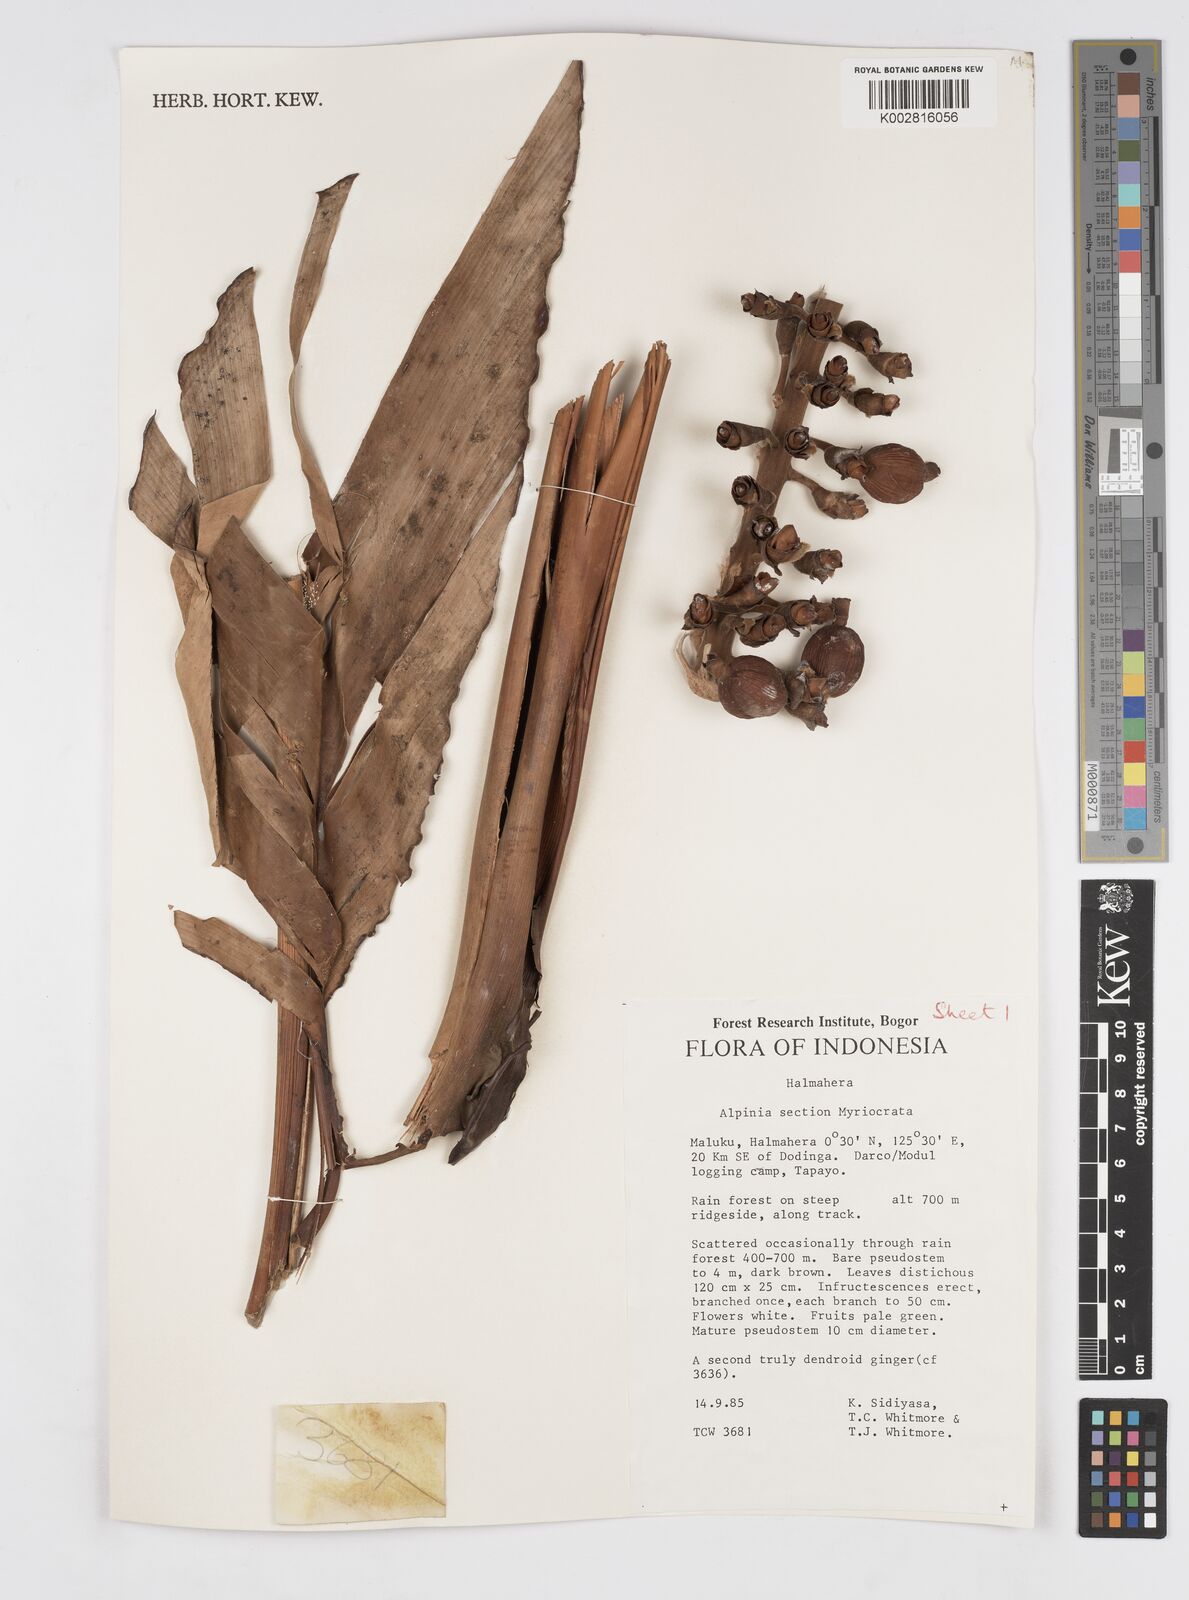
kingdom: Plantae
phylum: Tracheophyta
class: Liliopsida
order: Zingiberales
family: Zingiberaceae
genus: Alpinia
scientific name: Alpinia
